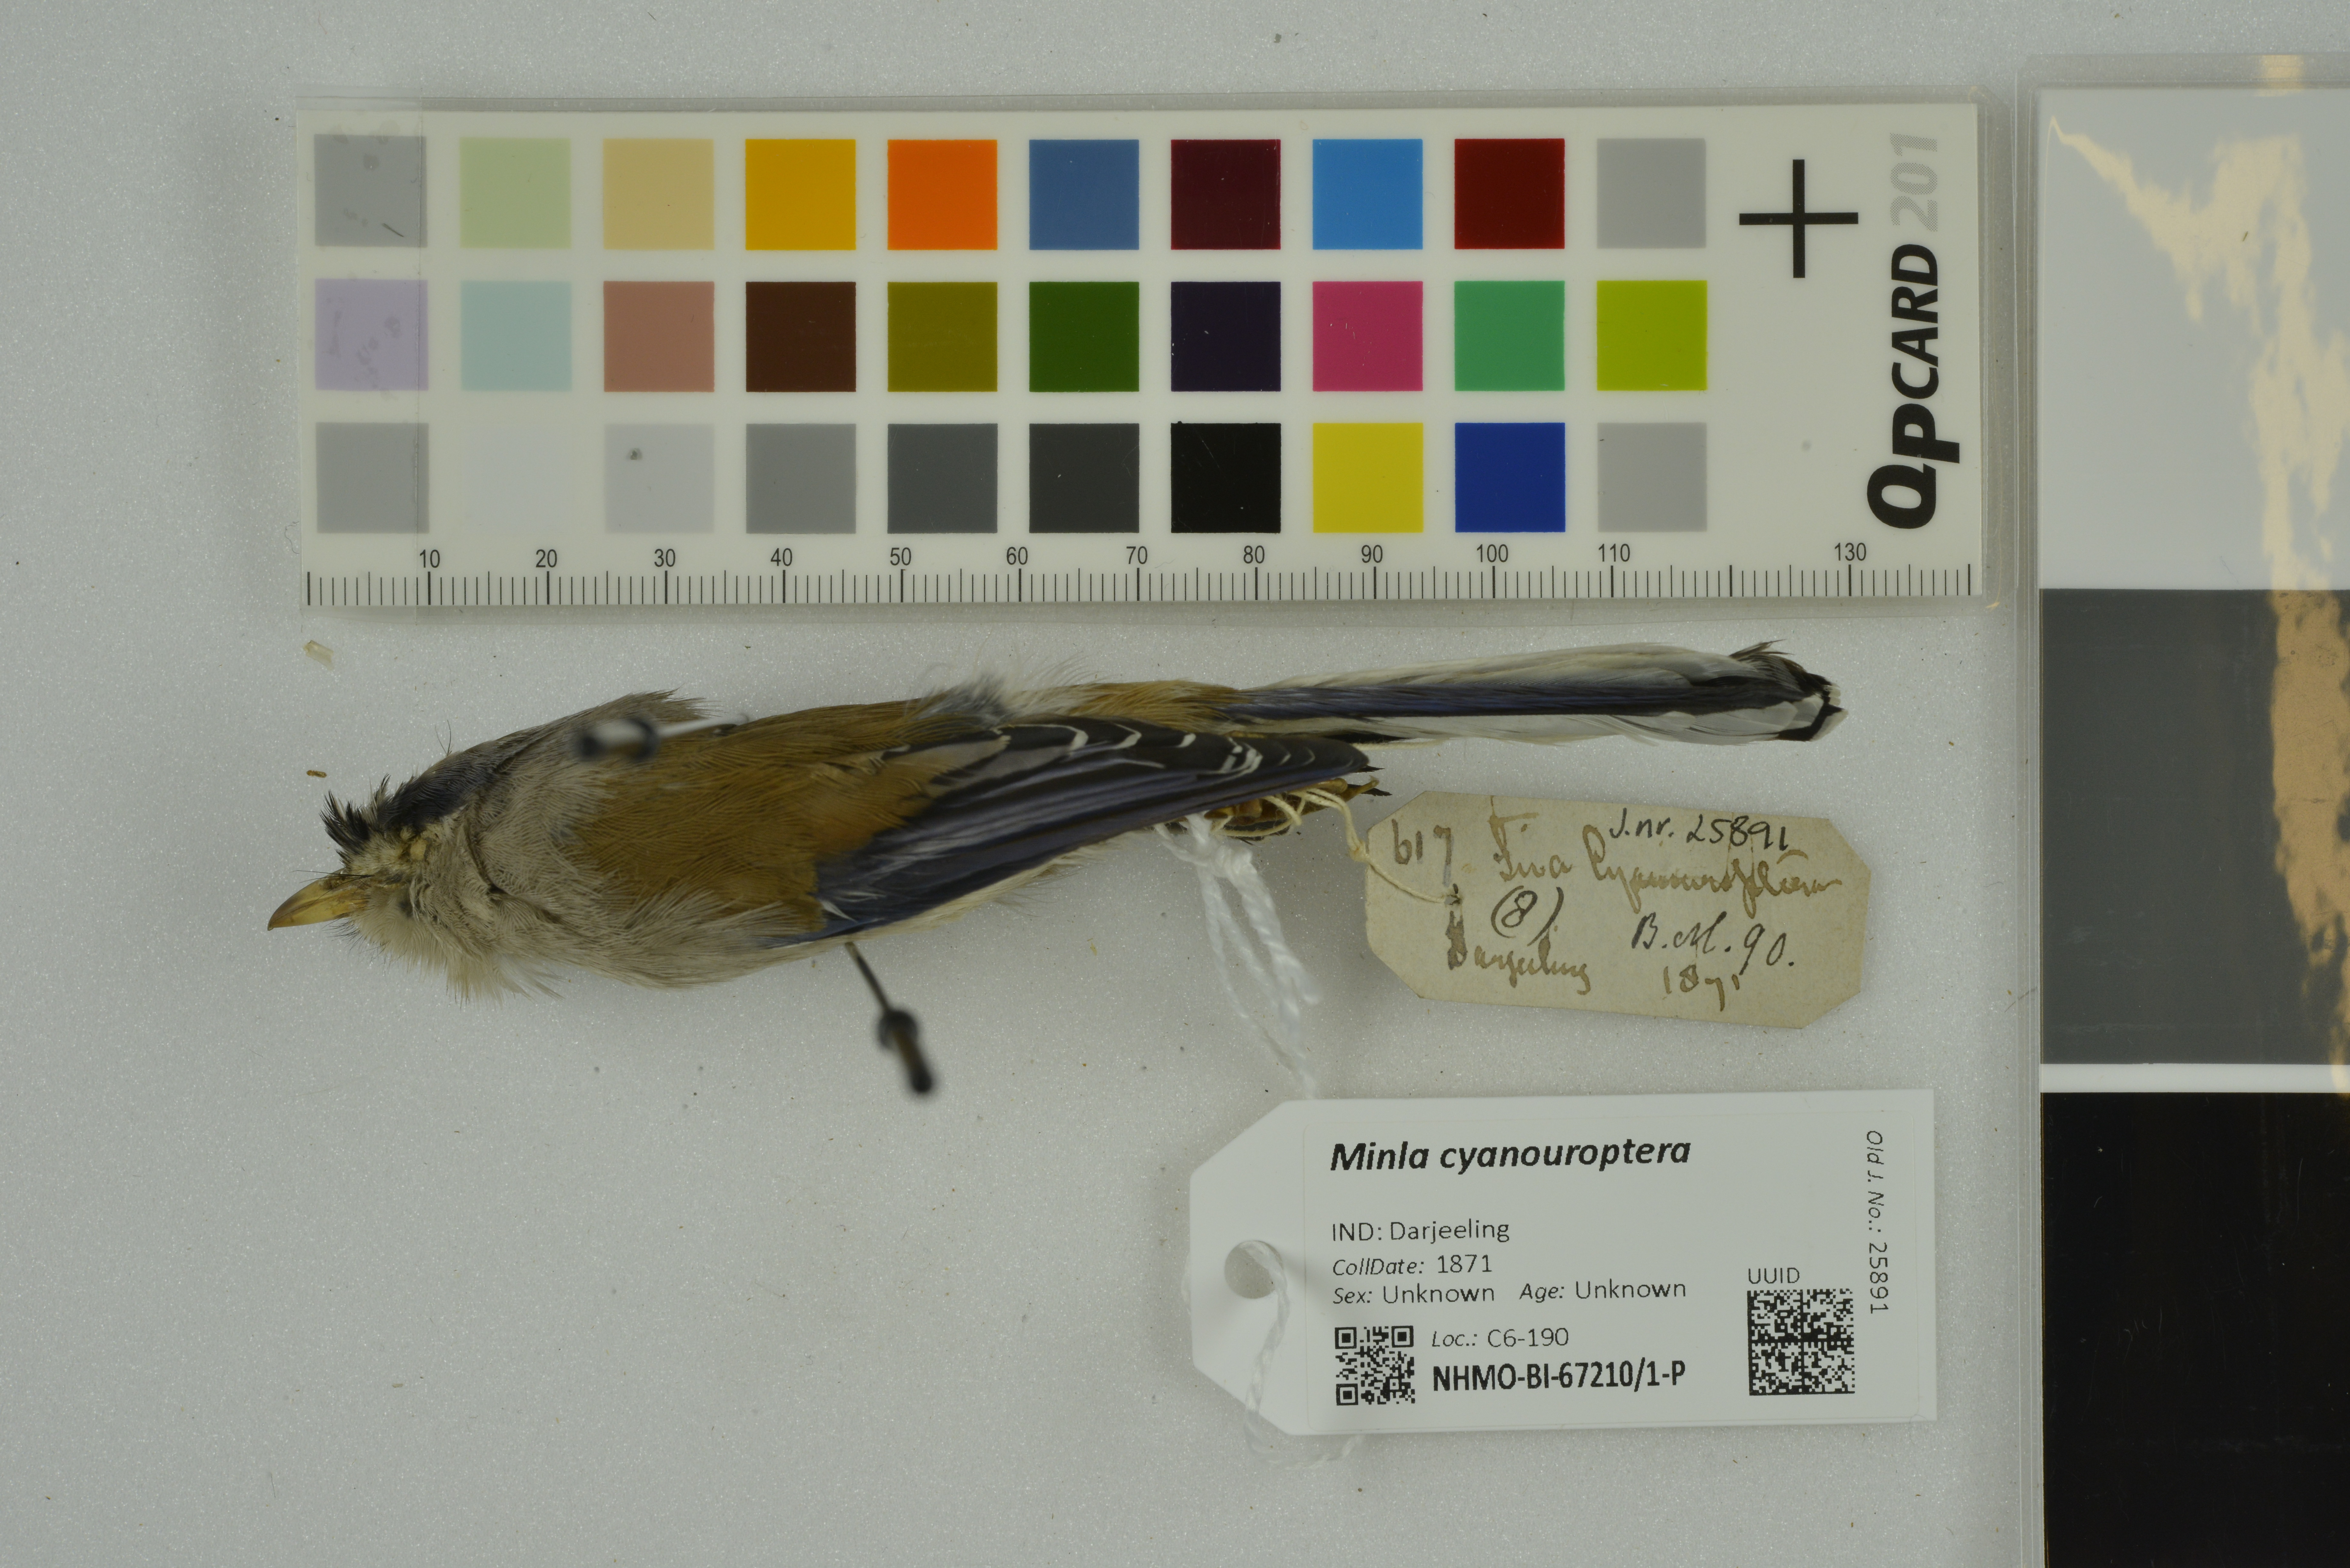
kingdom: Animalia
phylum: Chordata
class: Aves
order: Passeriformes
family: Leiothrichidae
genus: Minla
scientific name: Minla cyanouroptera
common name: Blue-winged minla
